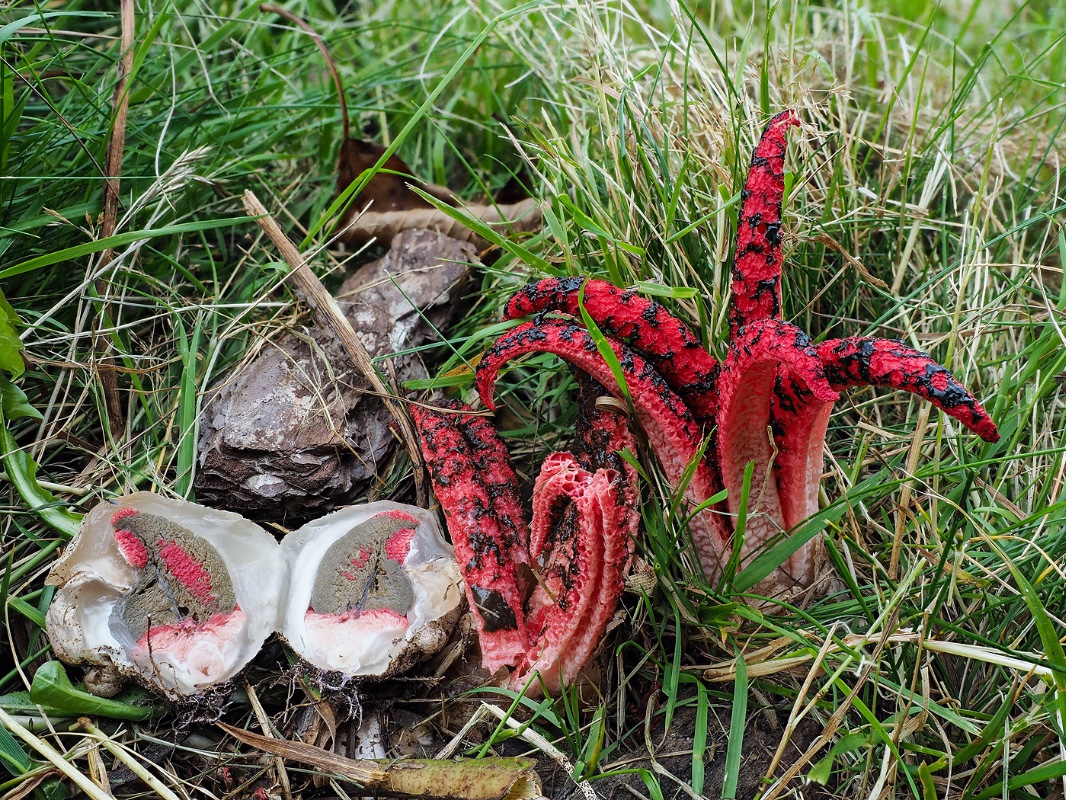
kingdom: Fungi
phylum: Basidiomycota
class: Agaricomycetes
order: Phallales
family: Phallaceae
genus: Clathrus
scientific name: Clathrus archeri
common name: blækspruttesvamp
